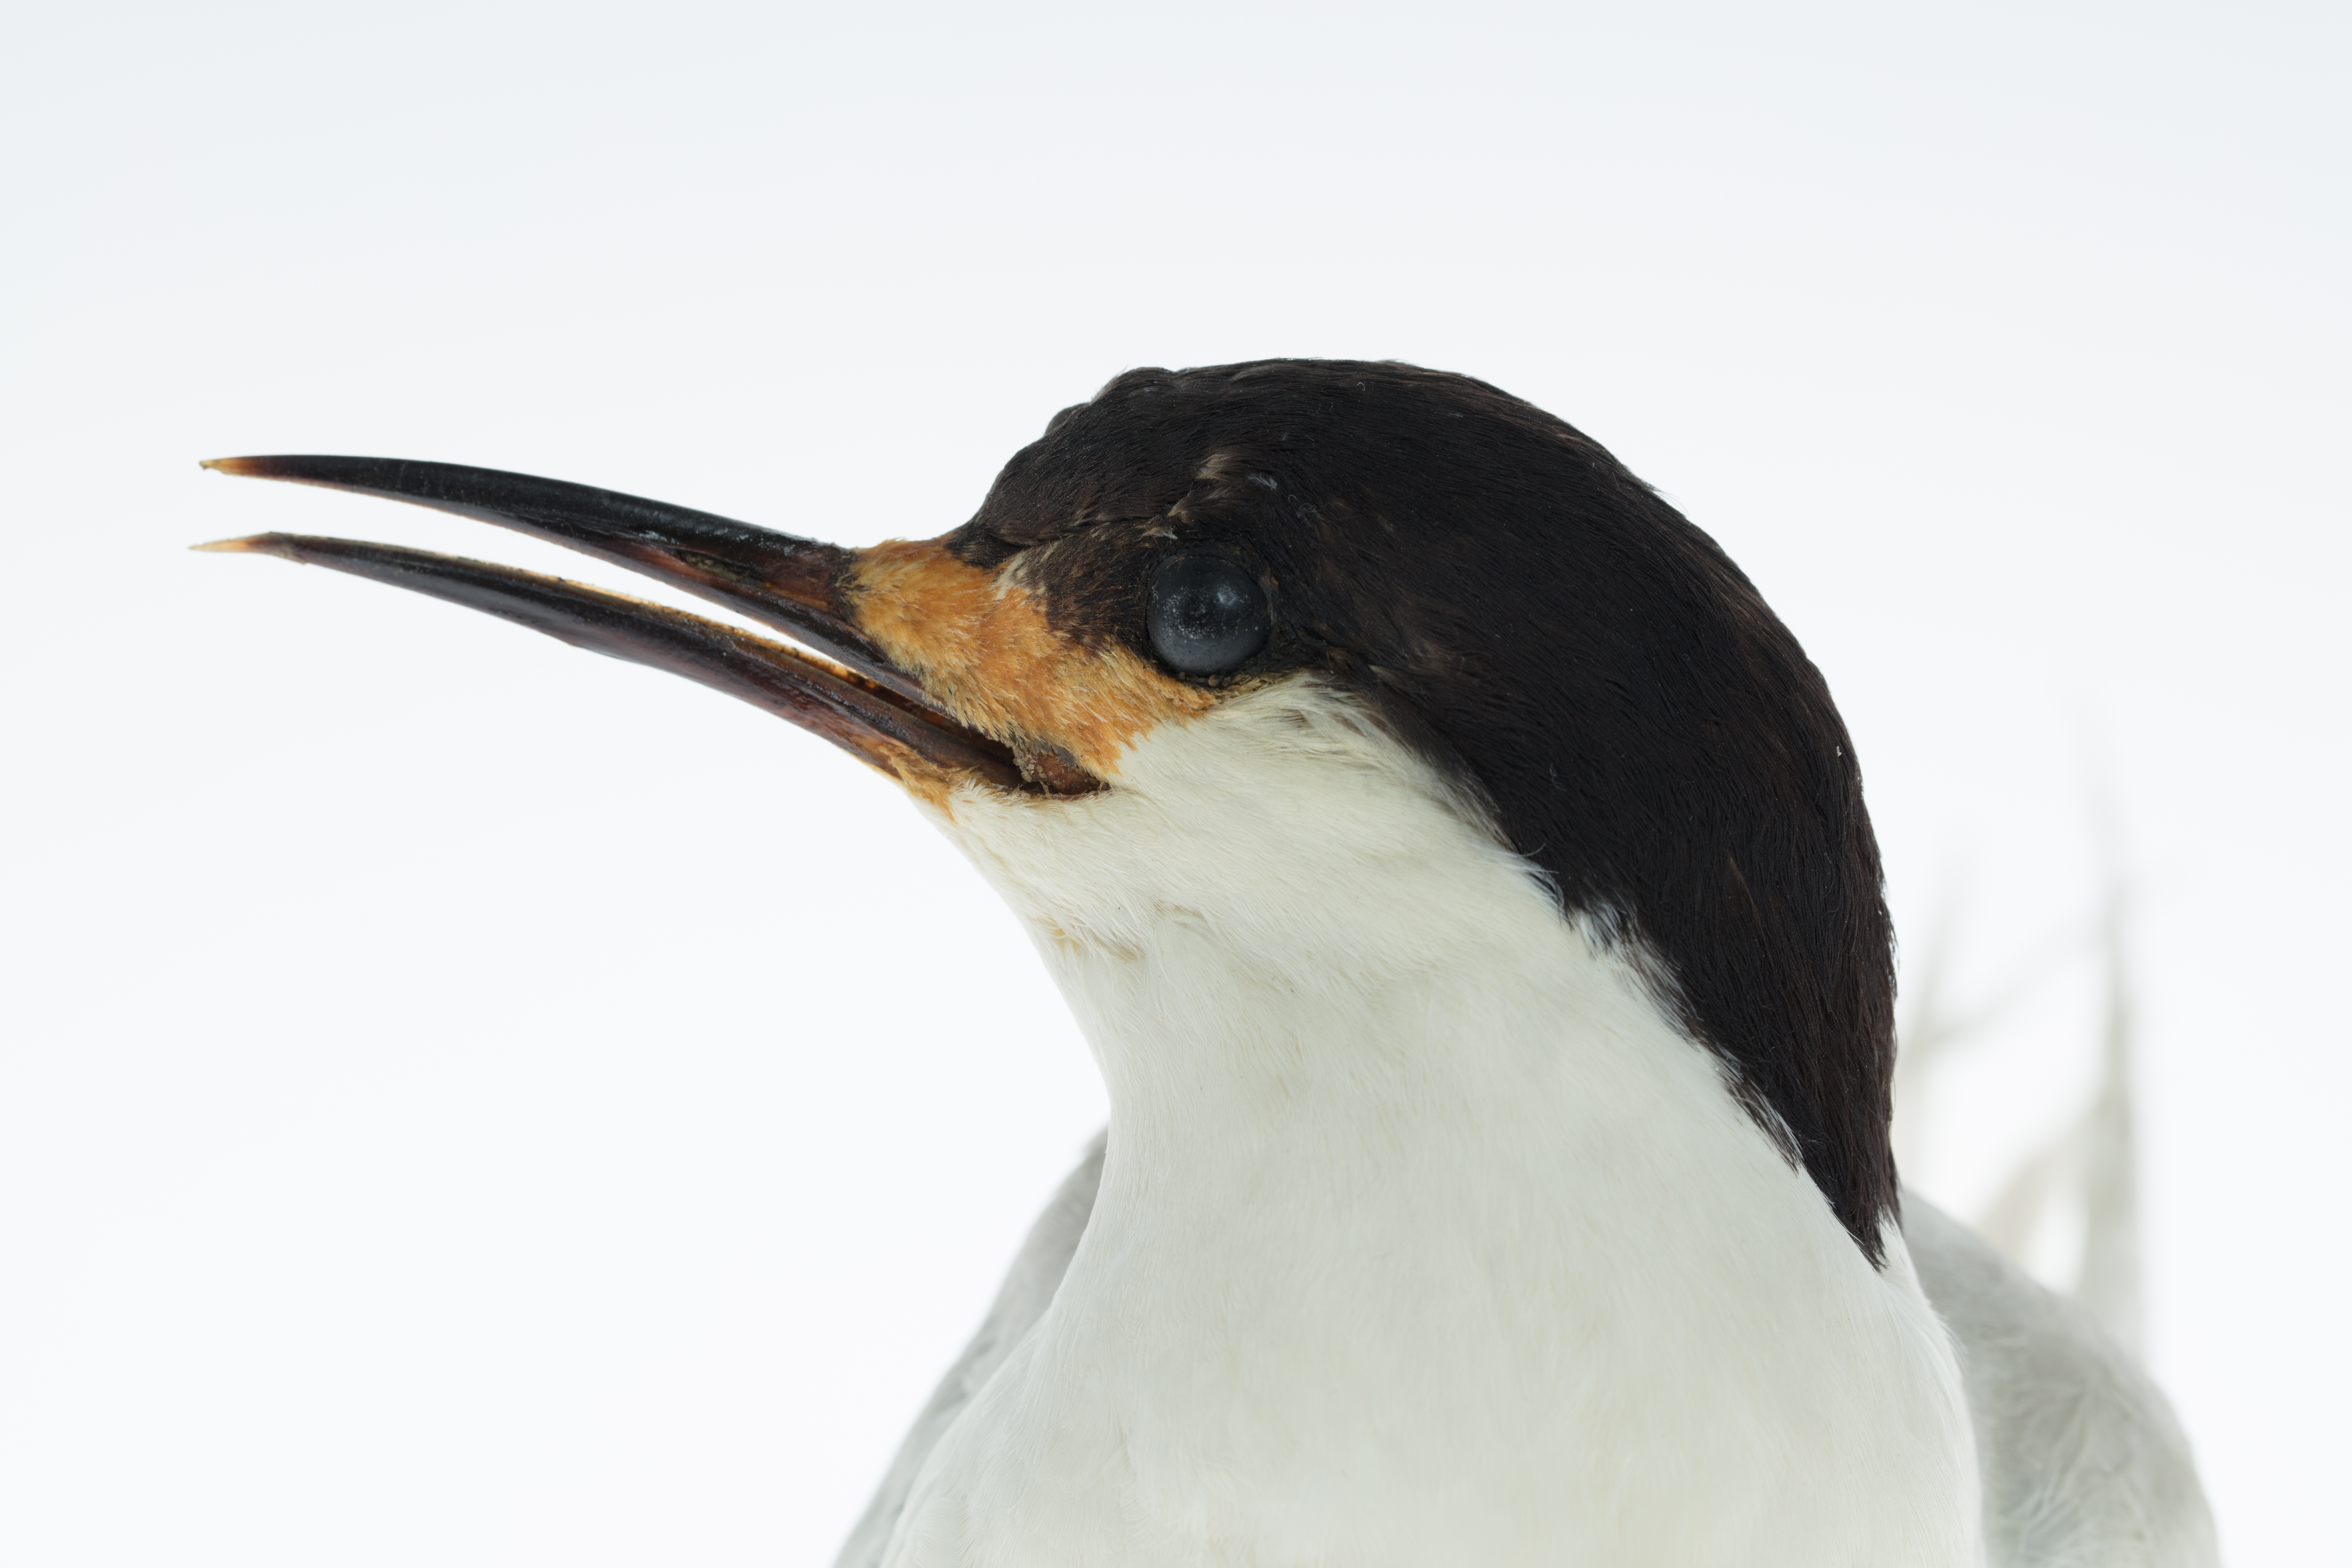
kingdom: Animalia
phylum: Chordata
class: Aves
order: Charadriiformes
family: Laridae
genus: Sterna
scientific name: Sterna striata
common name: White-fronted tern
